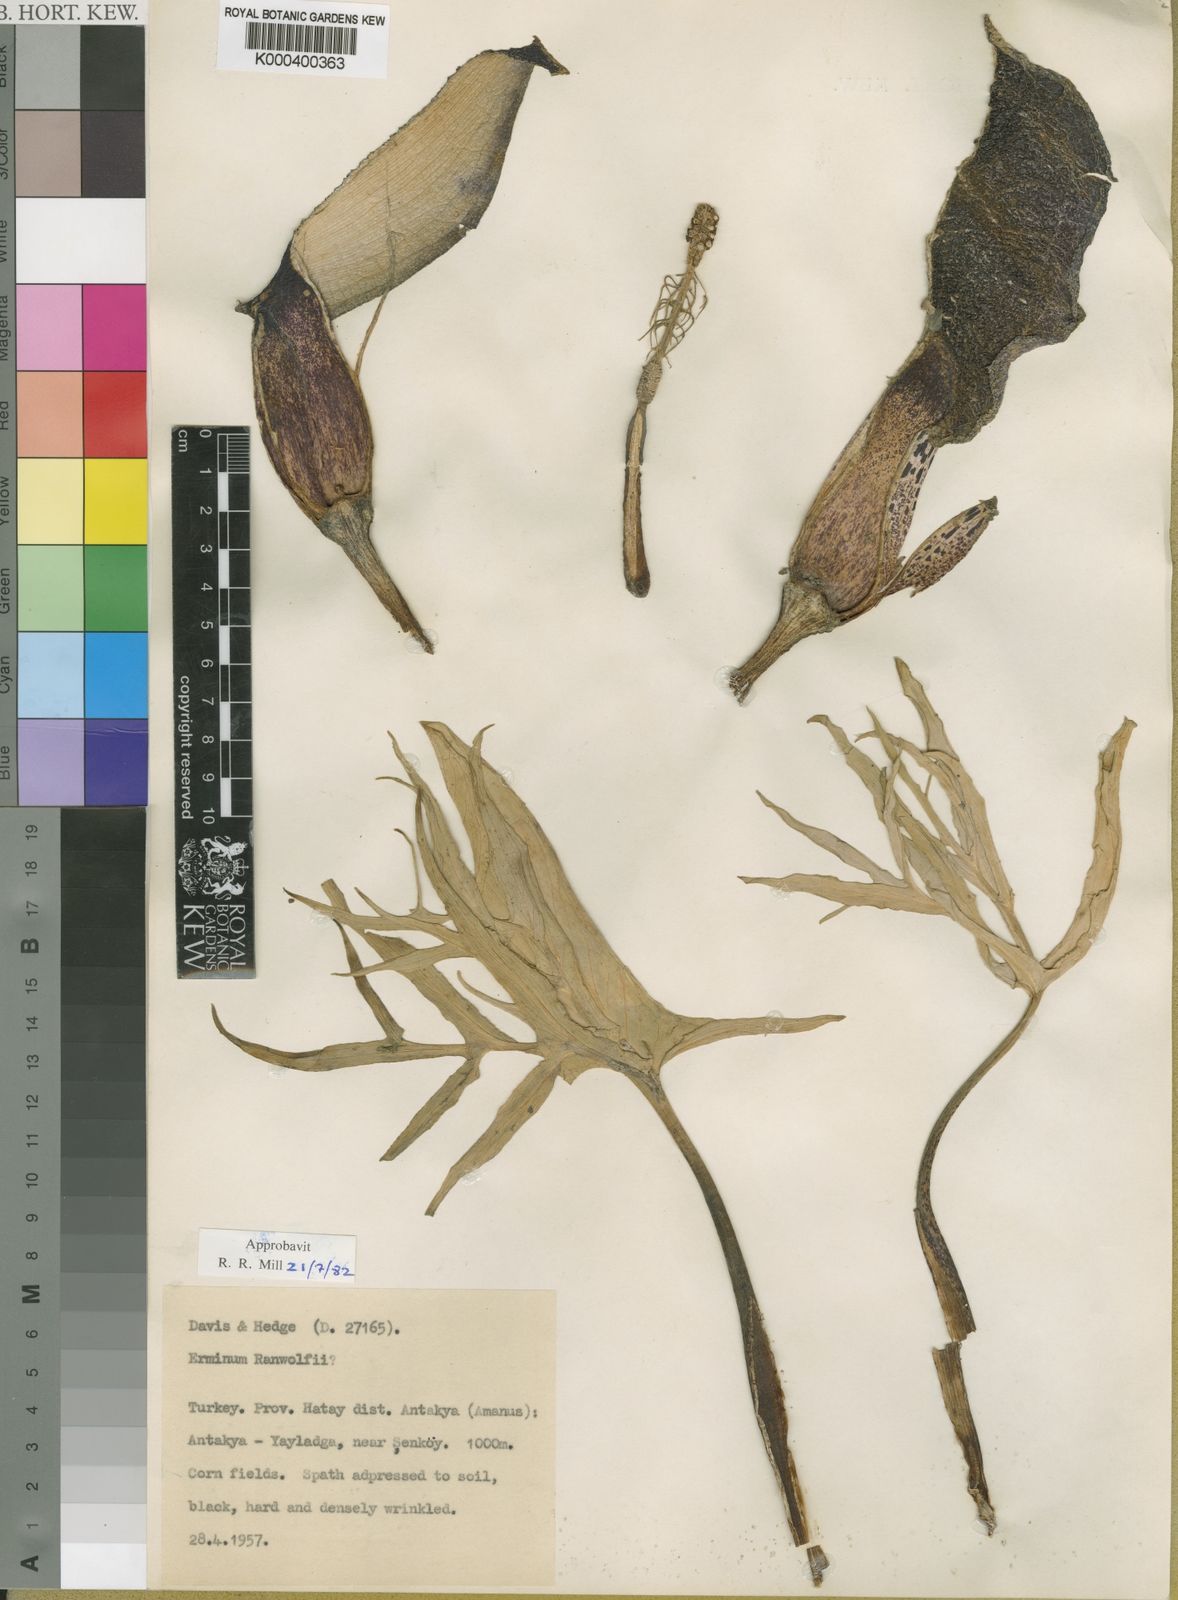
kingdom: Plantae
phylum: Tracheophyta
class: Liliopsida
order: Alismatales
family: Araceae
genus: Eminium
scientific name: Eminium rauwolffii
